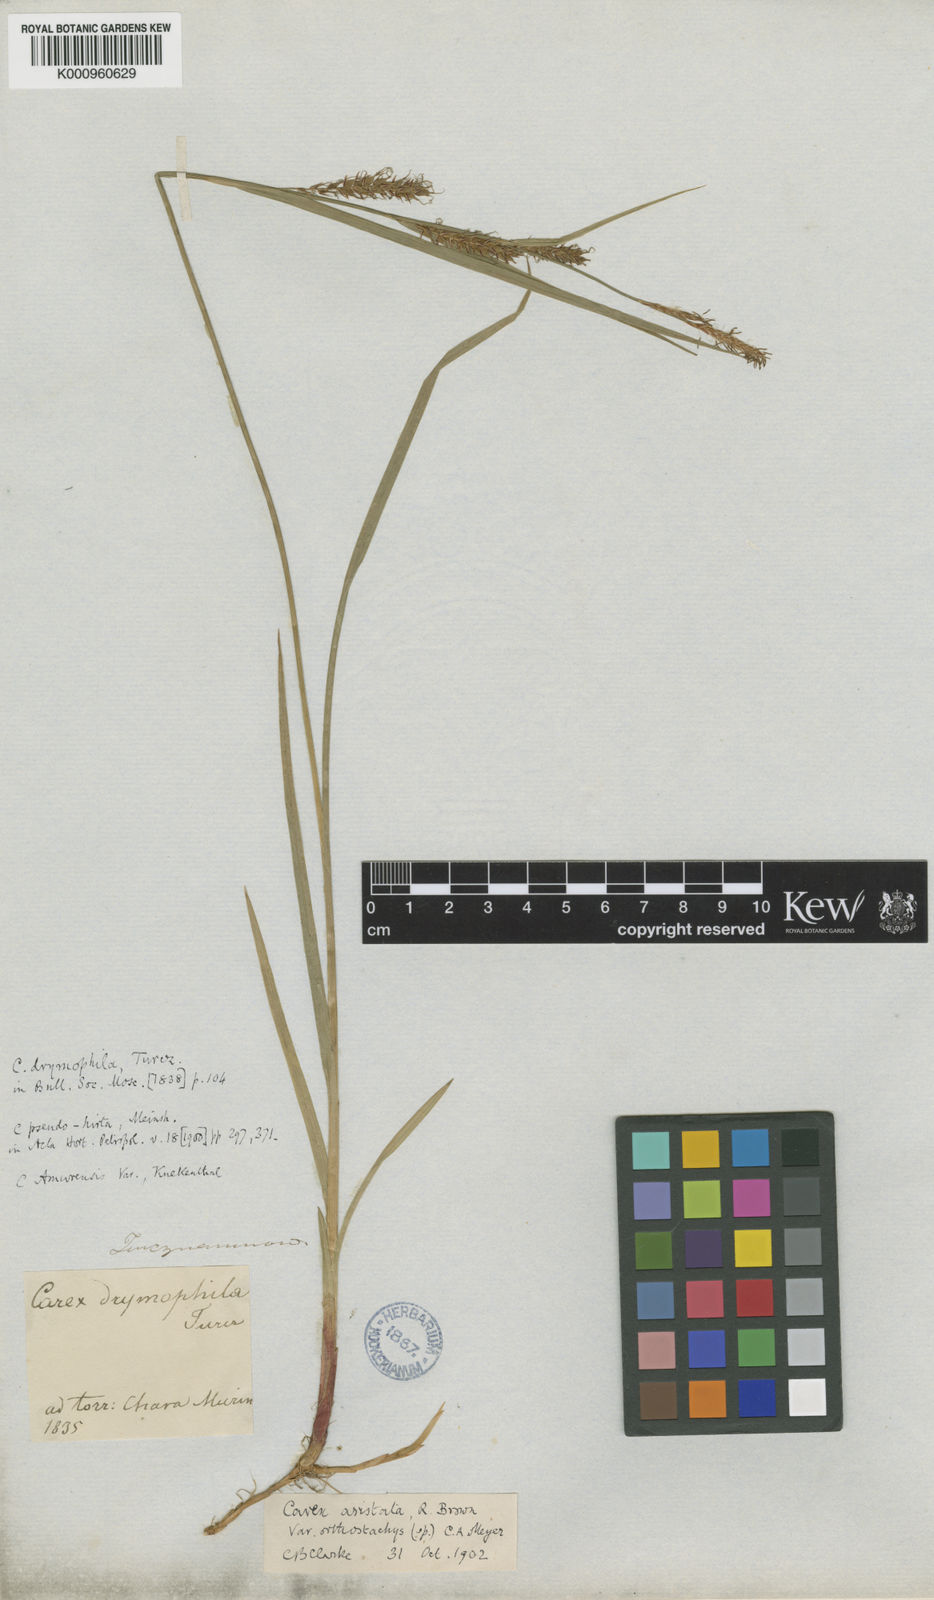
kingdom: Plantae
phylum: Tracheophyta
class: Liliopsida
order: Poales
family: Cyperaceae
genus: Carex
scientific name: Carex drymophila
